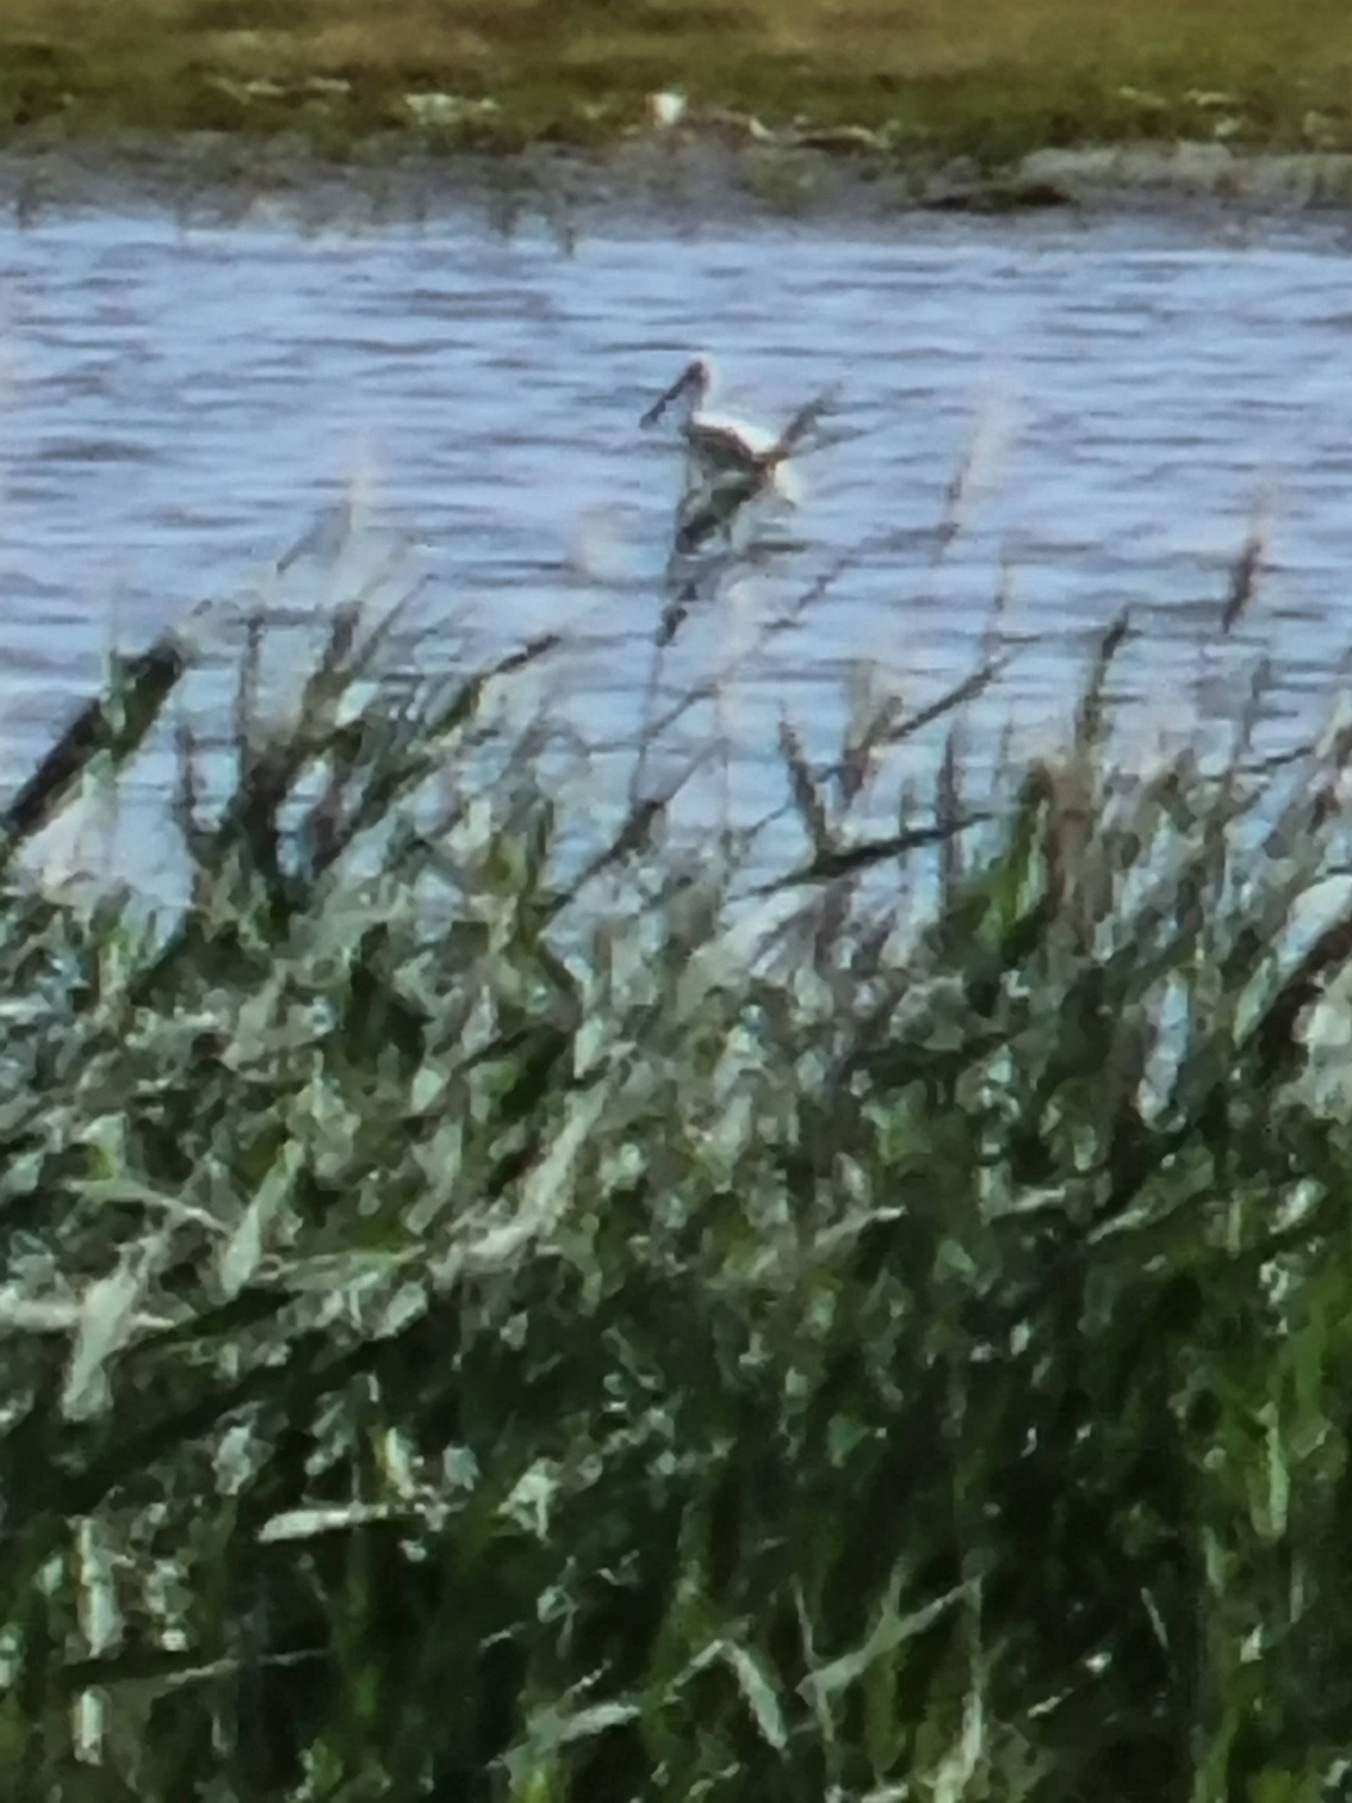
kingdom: Animalia
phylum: Chordata
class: Aves
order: Pelecaniformes
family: Threskiornithidae
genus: Platalea
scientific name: Platalea leucorodia
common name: Skestork
